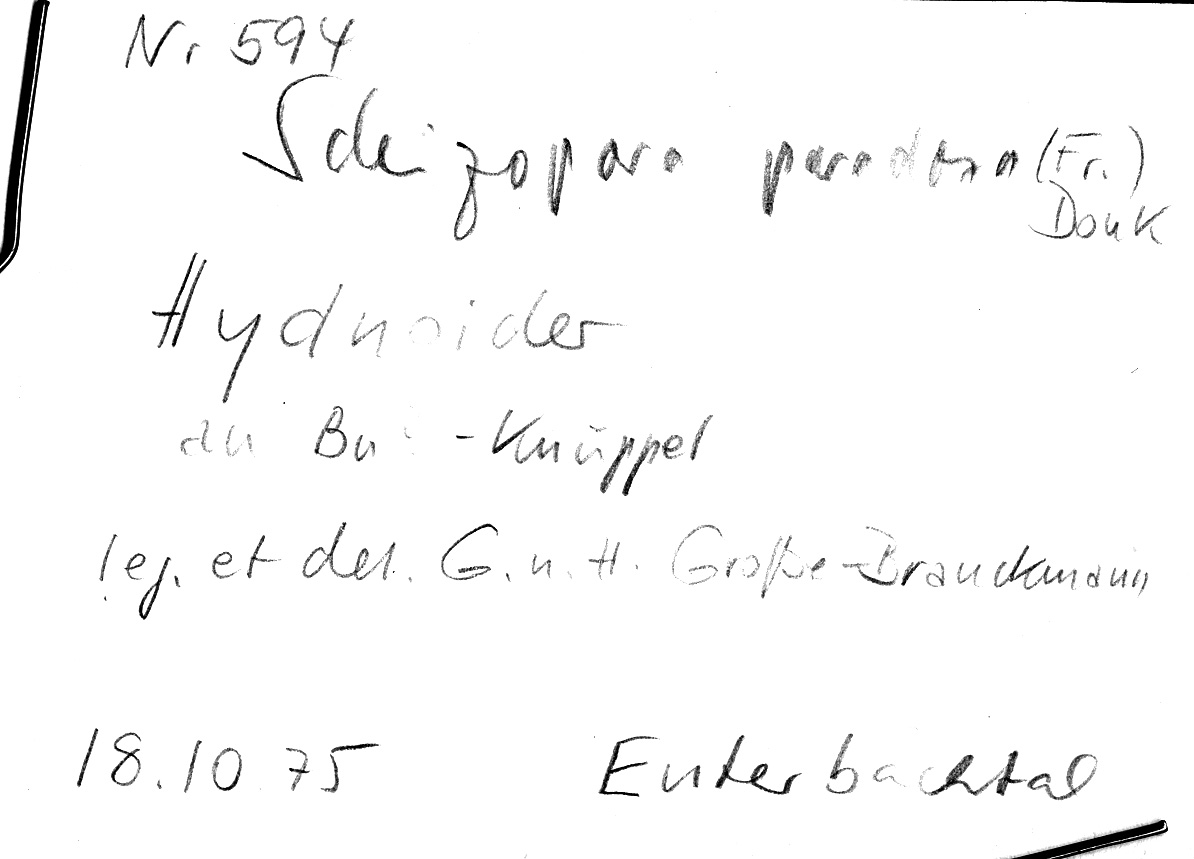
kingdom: Plantae
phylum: Tracheophyta
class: Magnoliopsida
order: Fagales
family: Fagaceae
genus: Fagus
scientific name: Fagus sylvatica
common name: Beech
